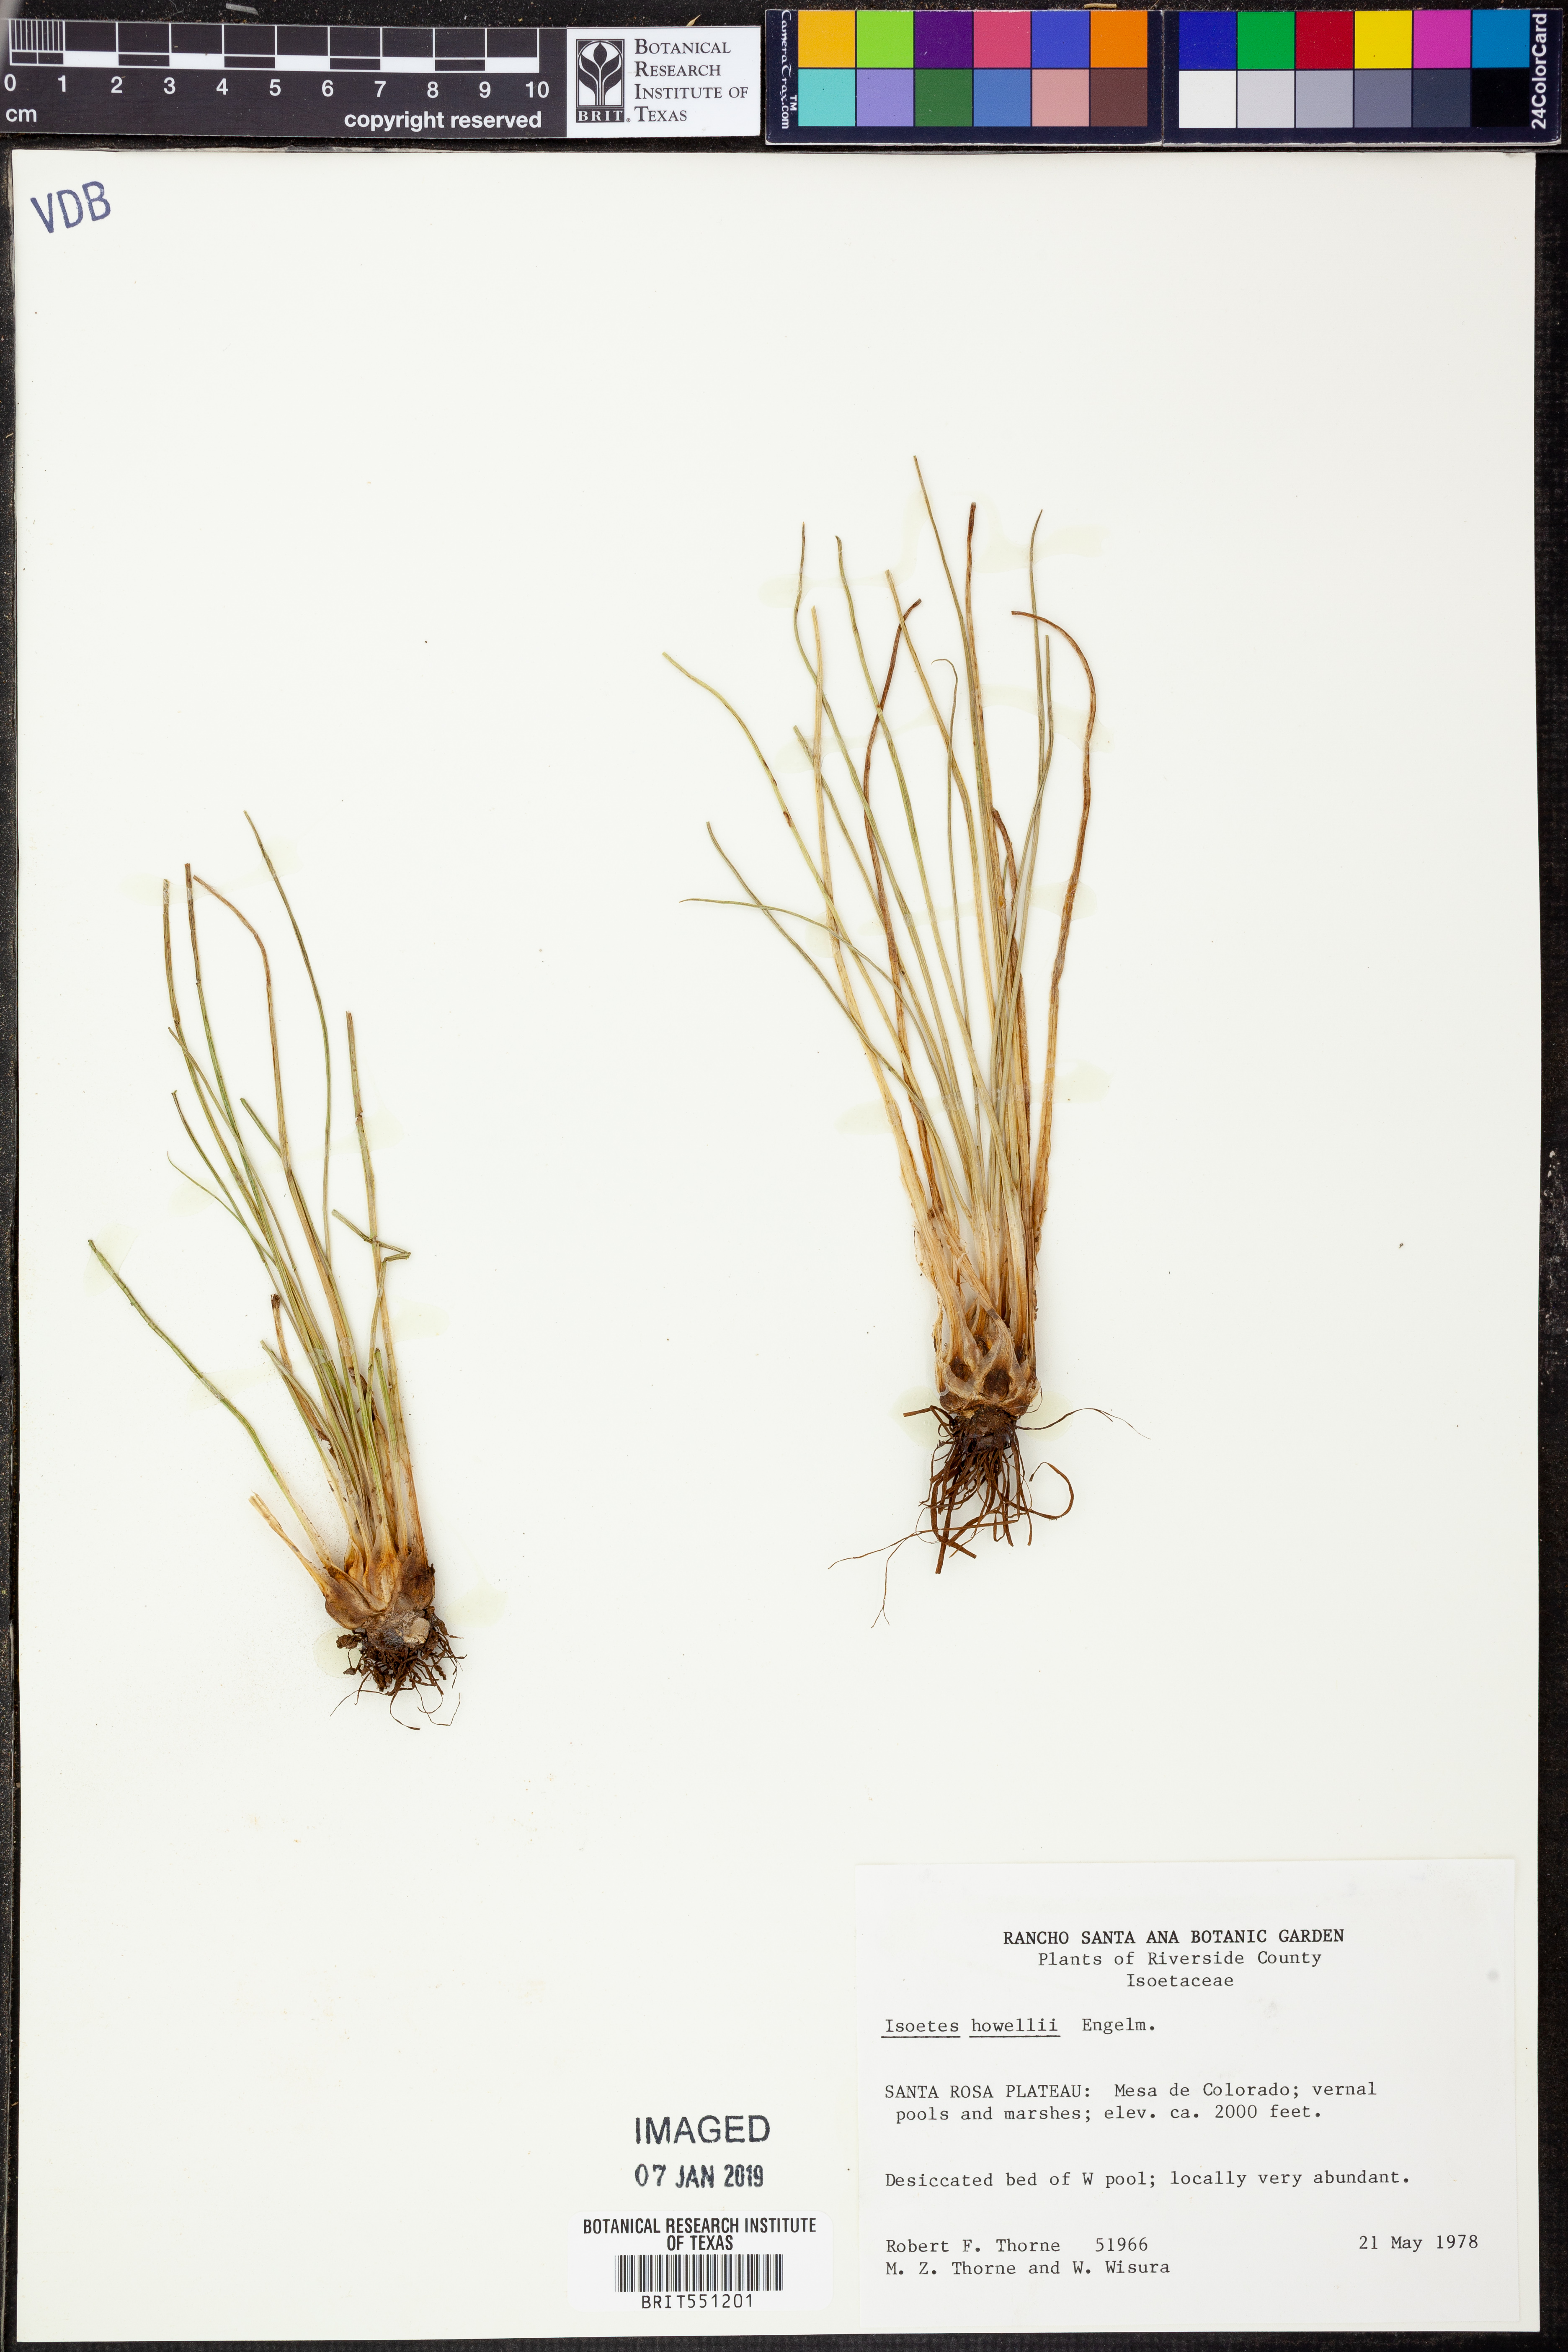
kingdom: Plantae
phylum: Tracheophyta
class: Lycopodiopsida
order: Isoetales
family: Isoetaceae
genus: Isoetes
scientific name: Isoetes howellii
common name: Howell's quillwort
